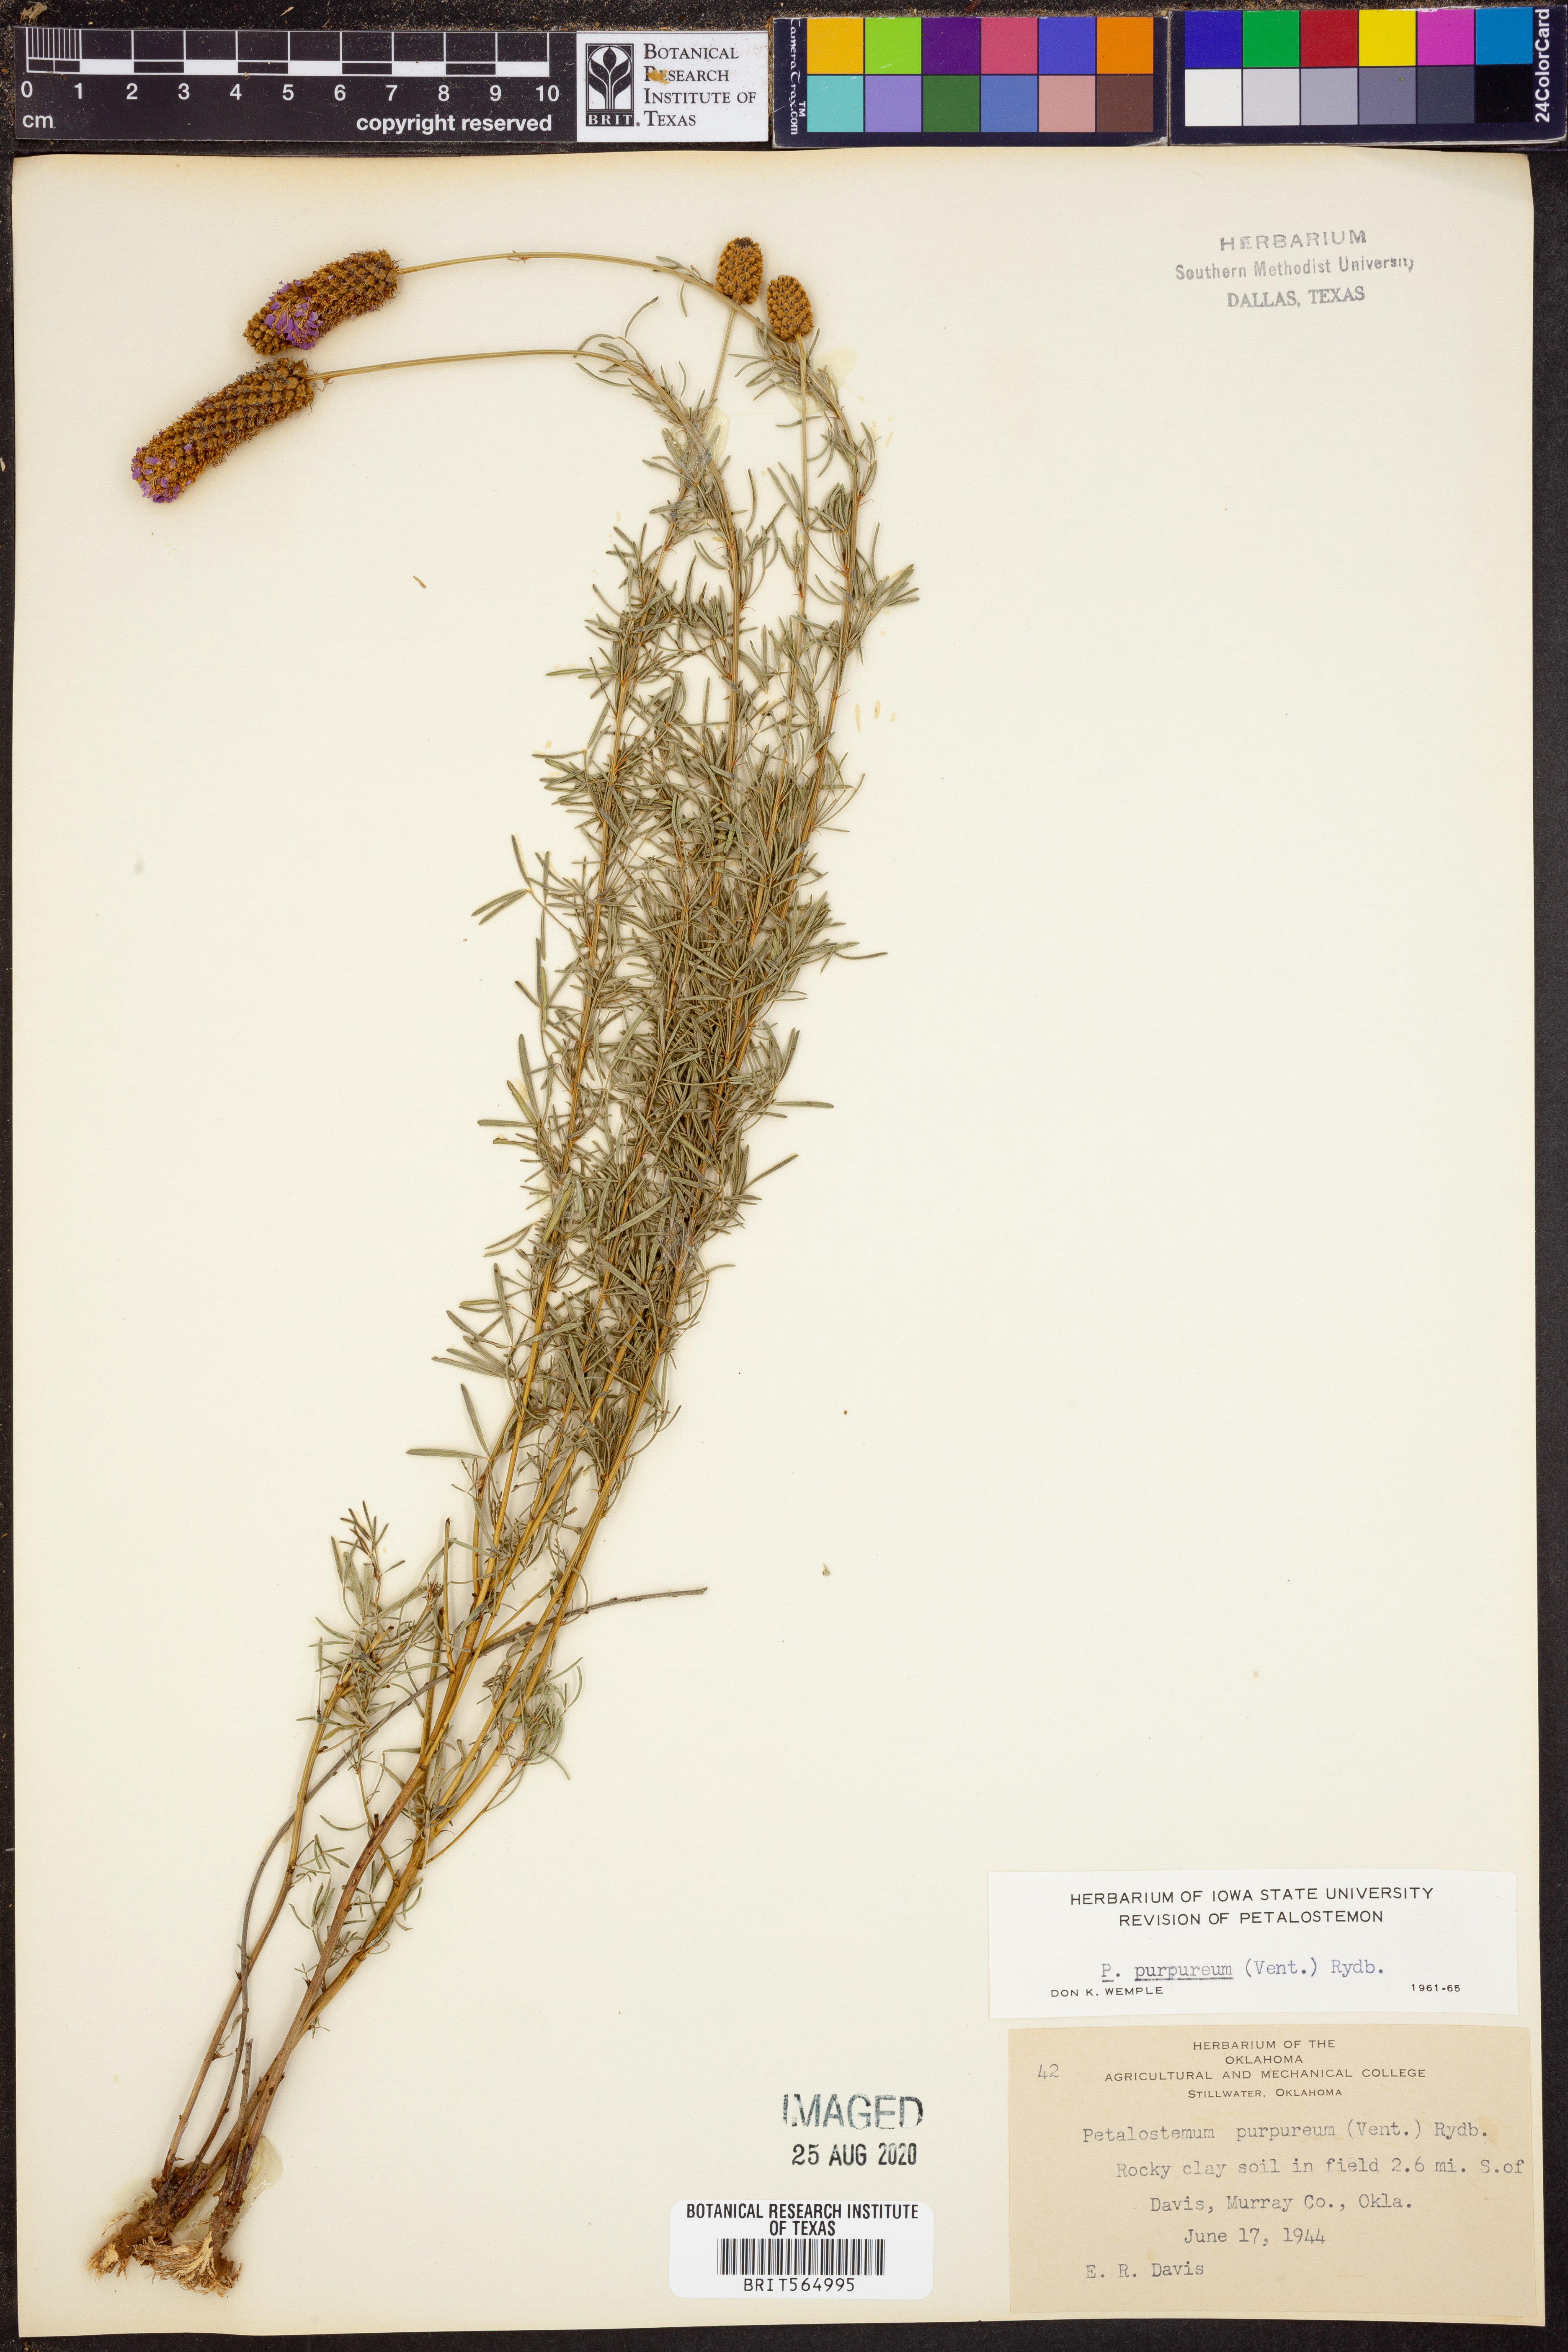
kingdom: Plantae
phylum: Tracheophyta
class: Magnoliopsida
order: Fabales
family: Fabaceae
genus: Dalea
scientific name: Dalea purpurea
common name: Purple prairie-clover
